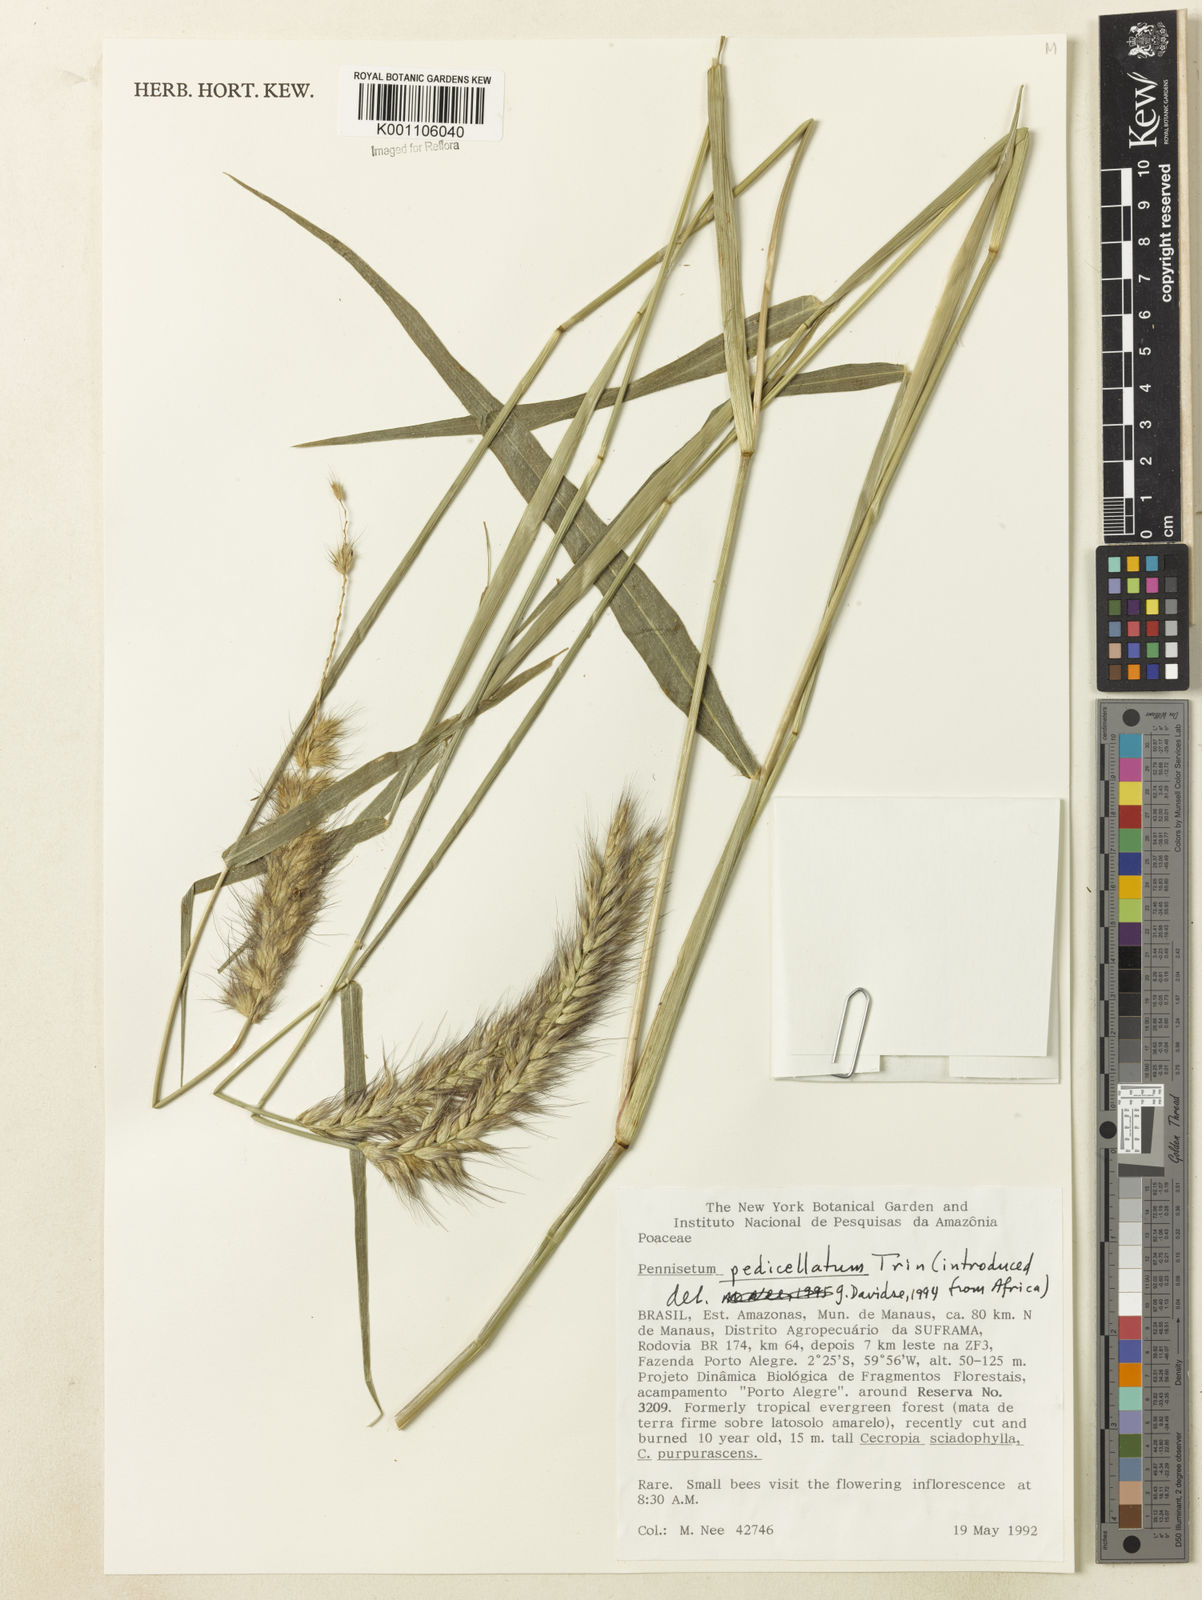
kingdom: Plantae
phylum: Tracheophyta
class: Liliopsida
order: Poales
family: Poaceae
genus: Cenchrus
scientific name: Cenchrus pedicellatus
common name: Hairy fountain grass
